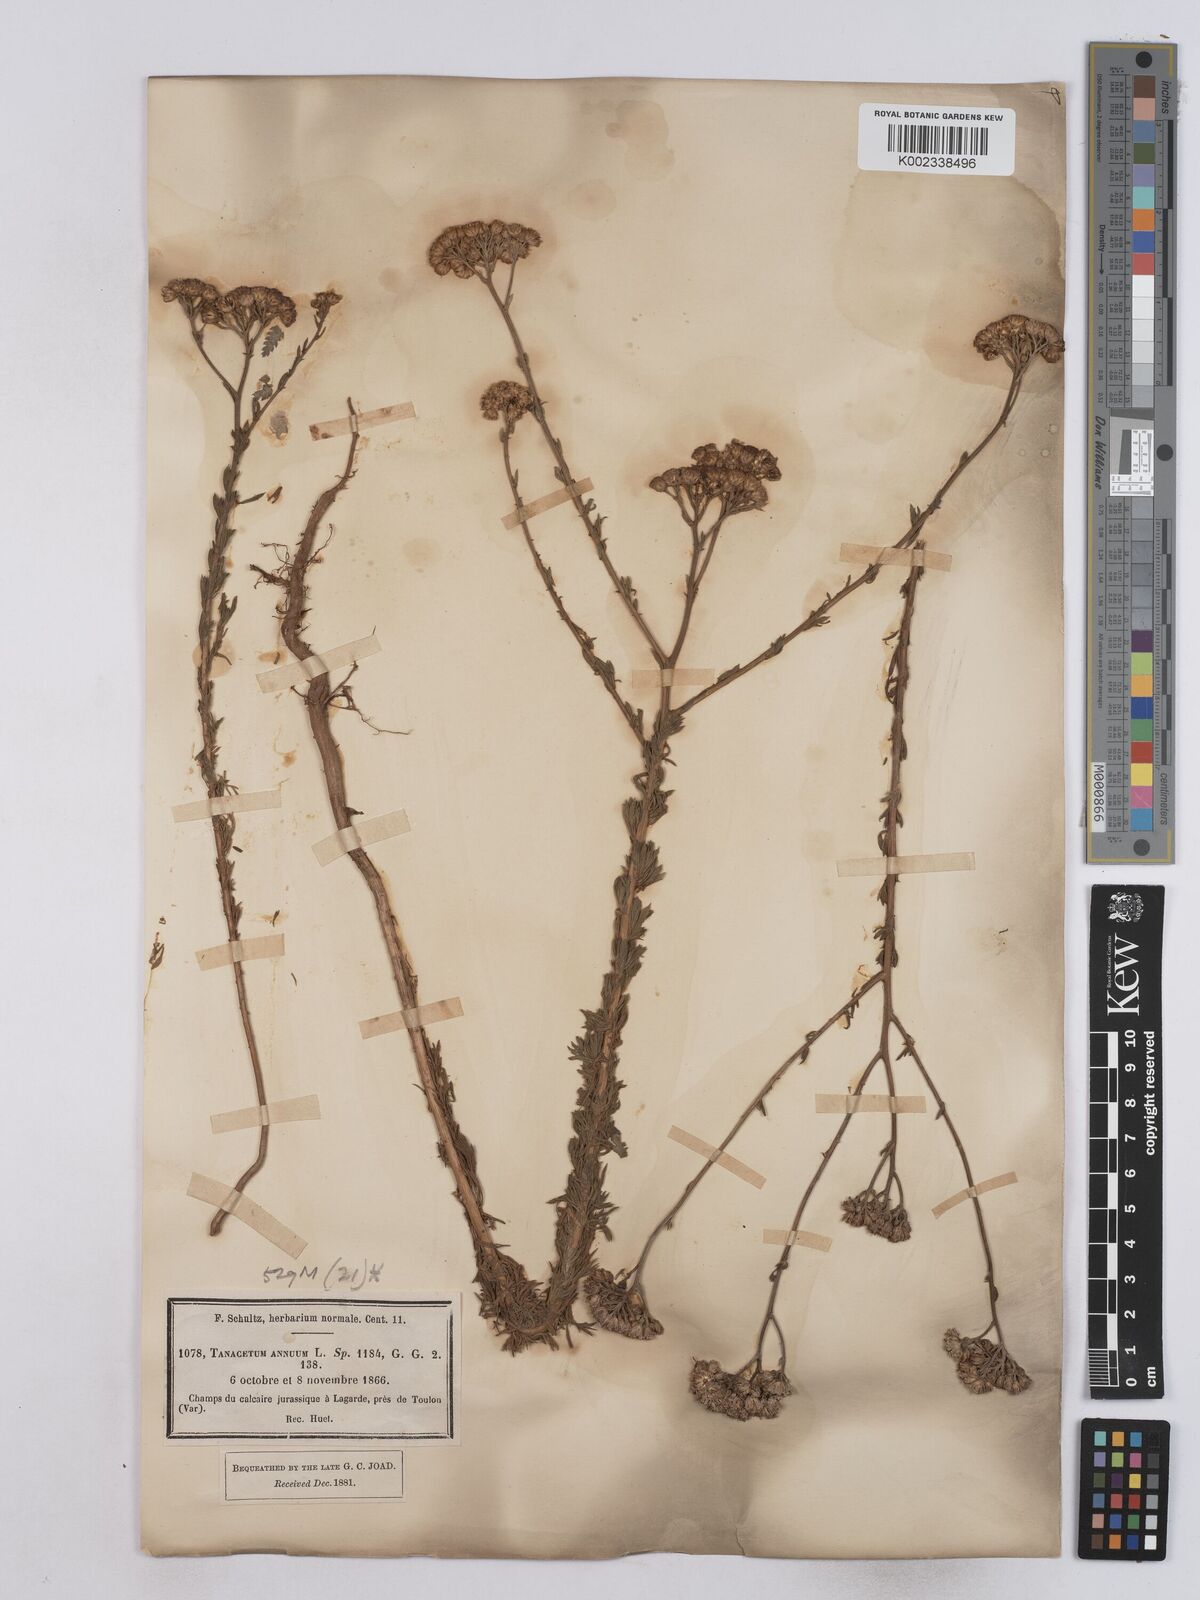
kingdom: Plantae
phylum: Tracheophyta
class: Magnoliopsida
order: Asterales
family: Asteraceae
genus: Vogtia
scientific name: Vogtia annua
